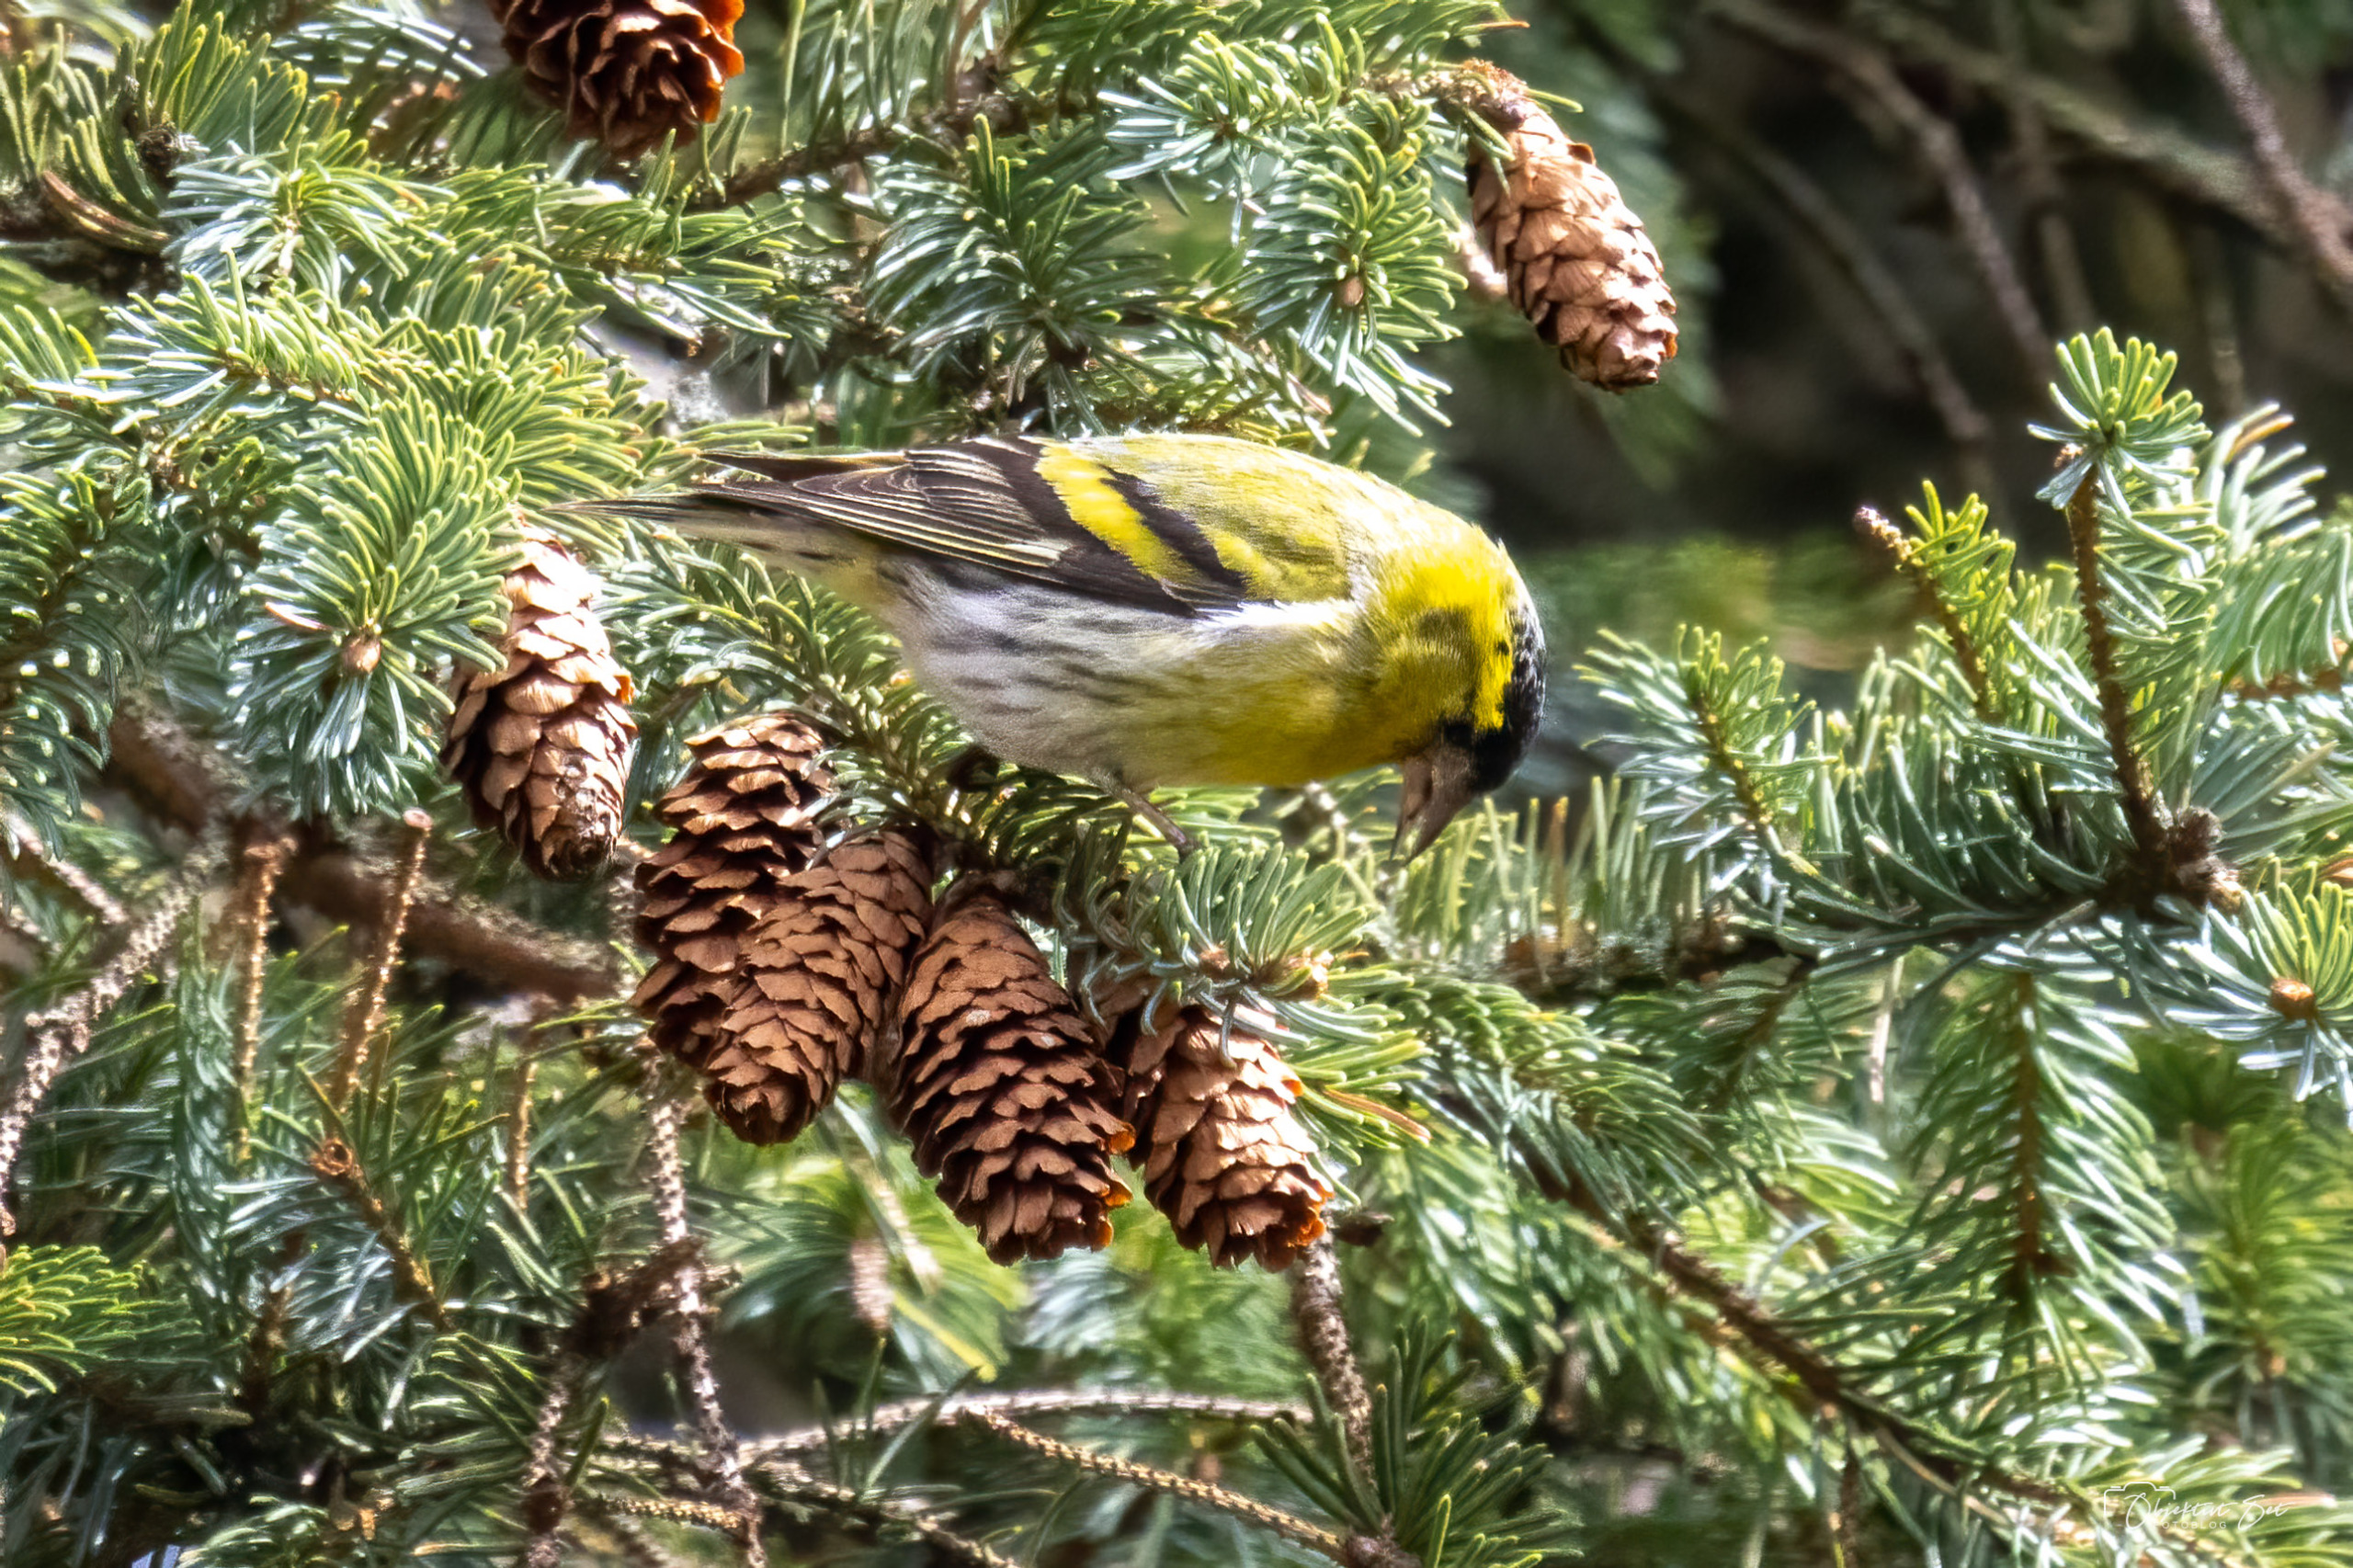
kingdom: Animalia
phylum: Chordata
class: Aves
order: Passeriformes
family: Fringillidae
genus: Spinus
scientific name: Spinus spinus
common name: Grønsisken
